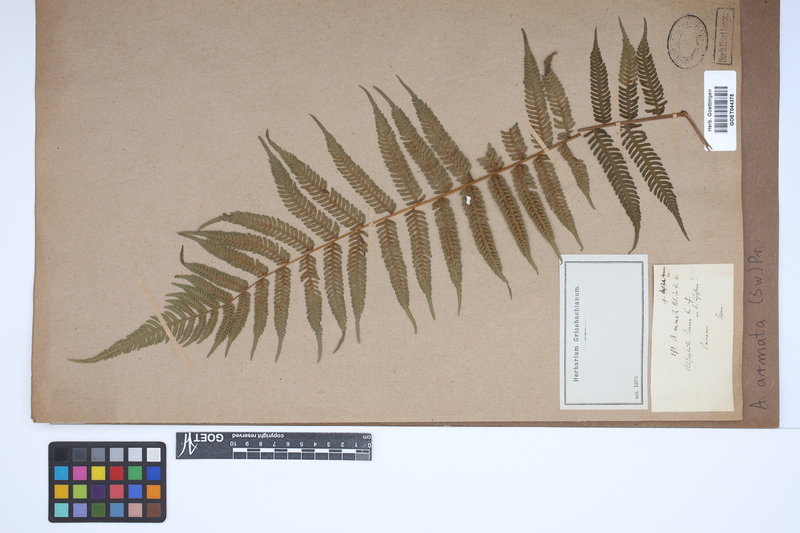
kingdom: Plantae
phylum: Tracheophyta
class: Polypodiopsida
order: Cyatheales
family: Cyatheaceae
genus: Cyathea
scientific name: Cyathea armata
